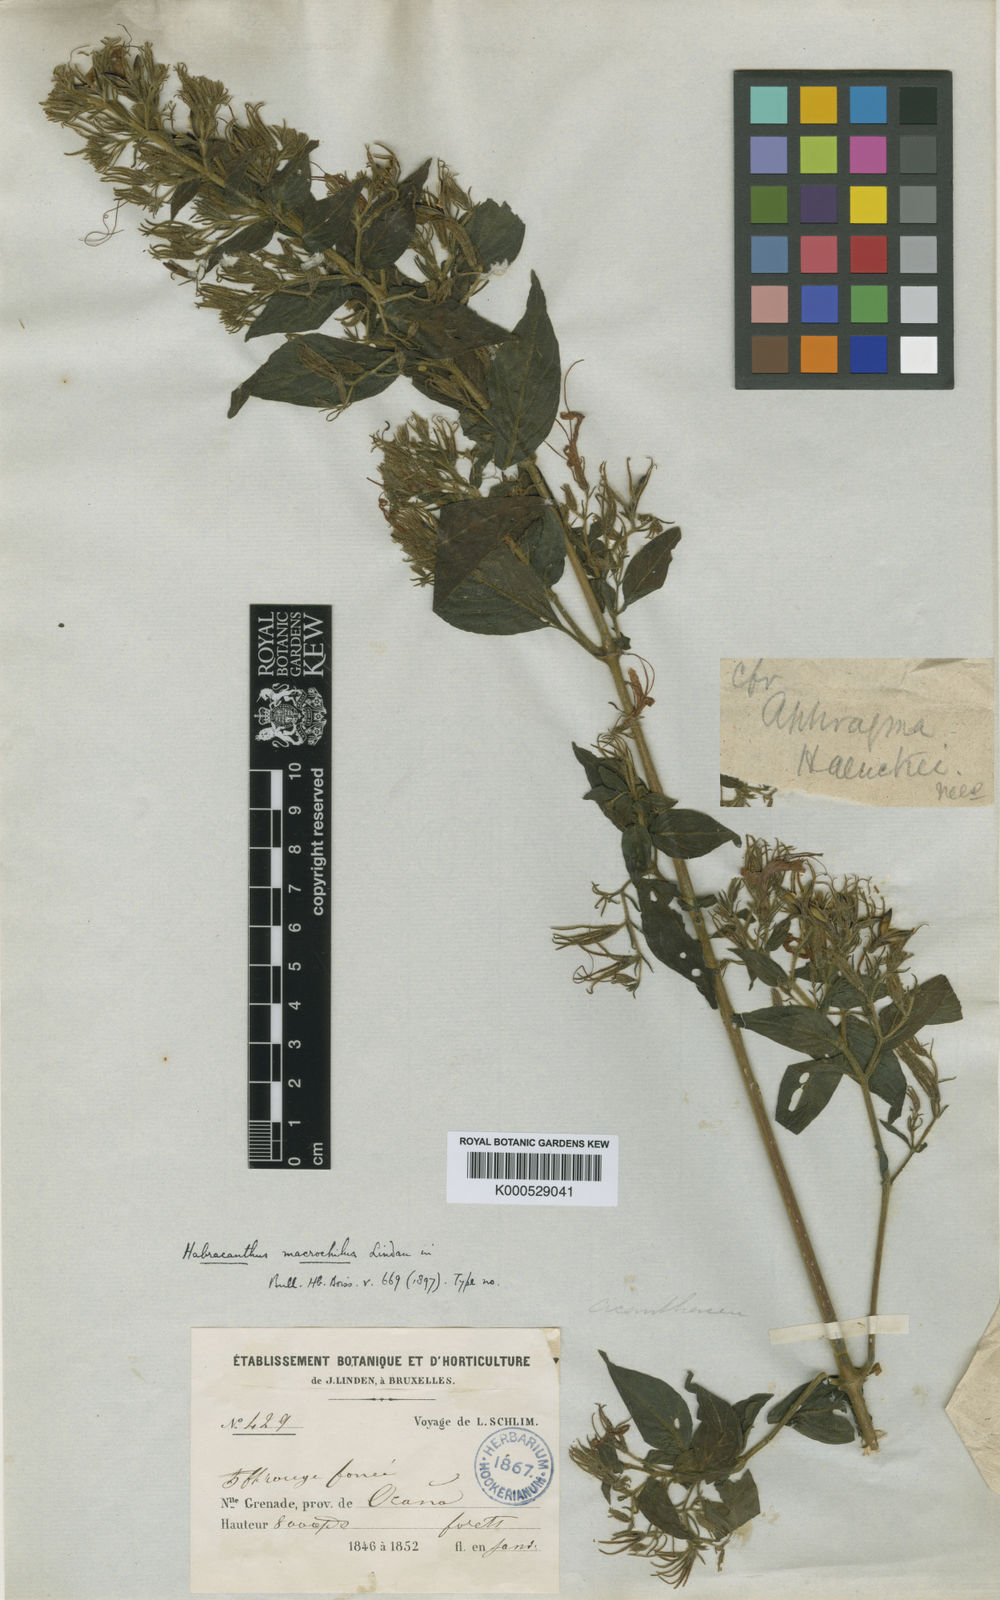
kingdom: Plantae
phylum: Tracheophyta
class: Magnoliopsida
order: Lamiales
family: Acanthaceae
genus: Stenostephanus
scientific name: Stenostephanus macrochilus
